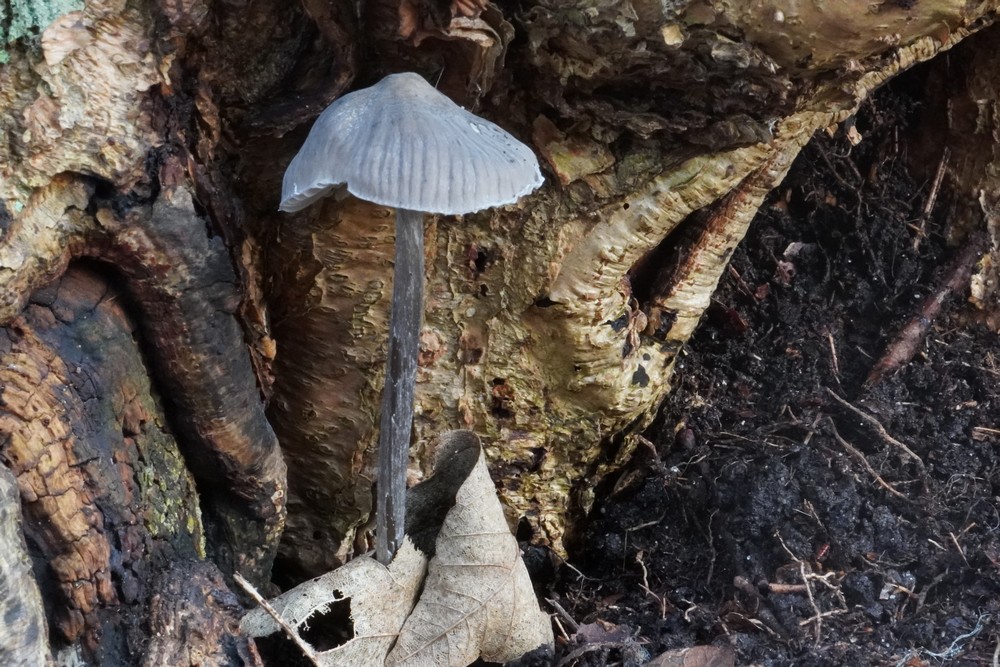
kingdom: Fungi
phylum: Basidiomycota
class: Agaricomycetes
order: Agaricales
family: Mycenaceae
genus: Mycena
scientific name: Mycena polygramma
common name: mangestribet huesvamp
